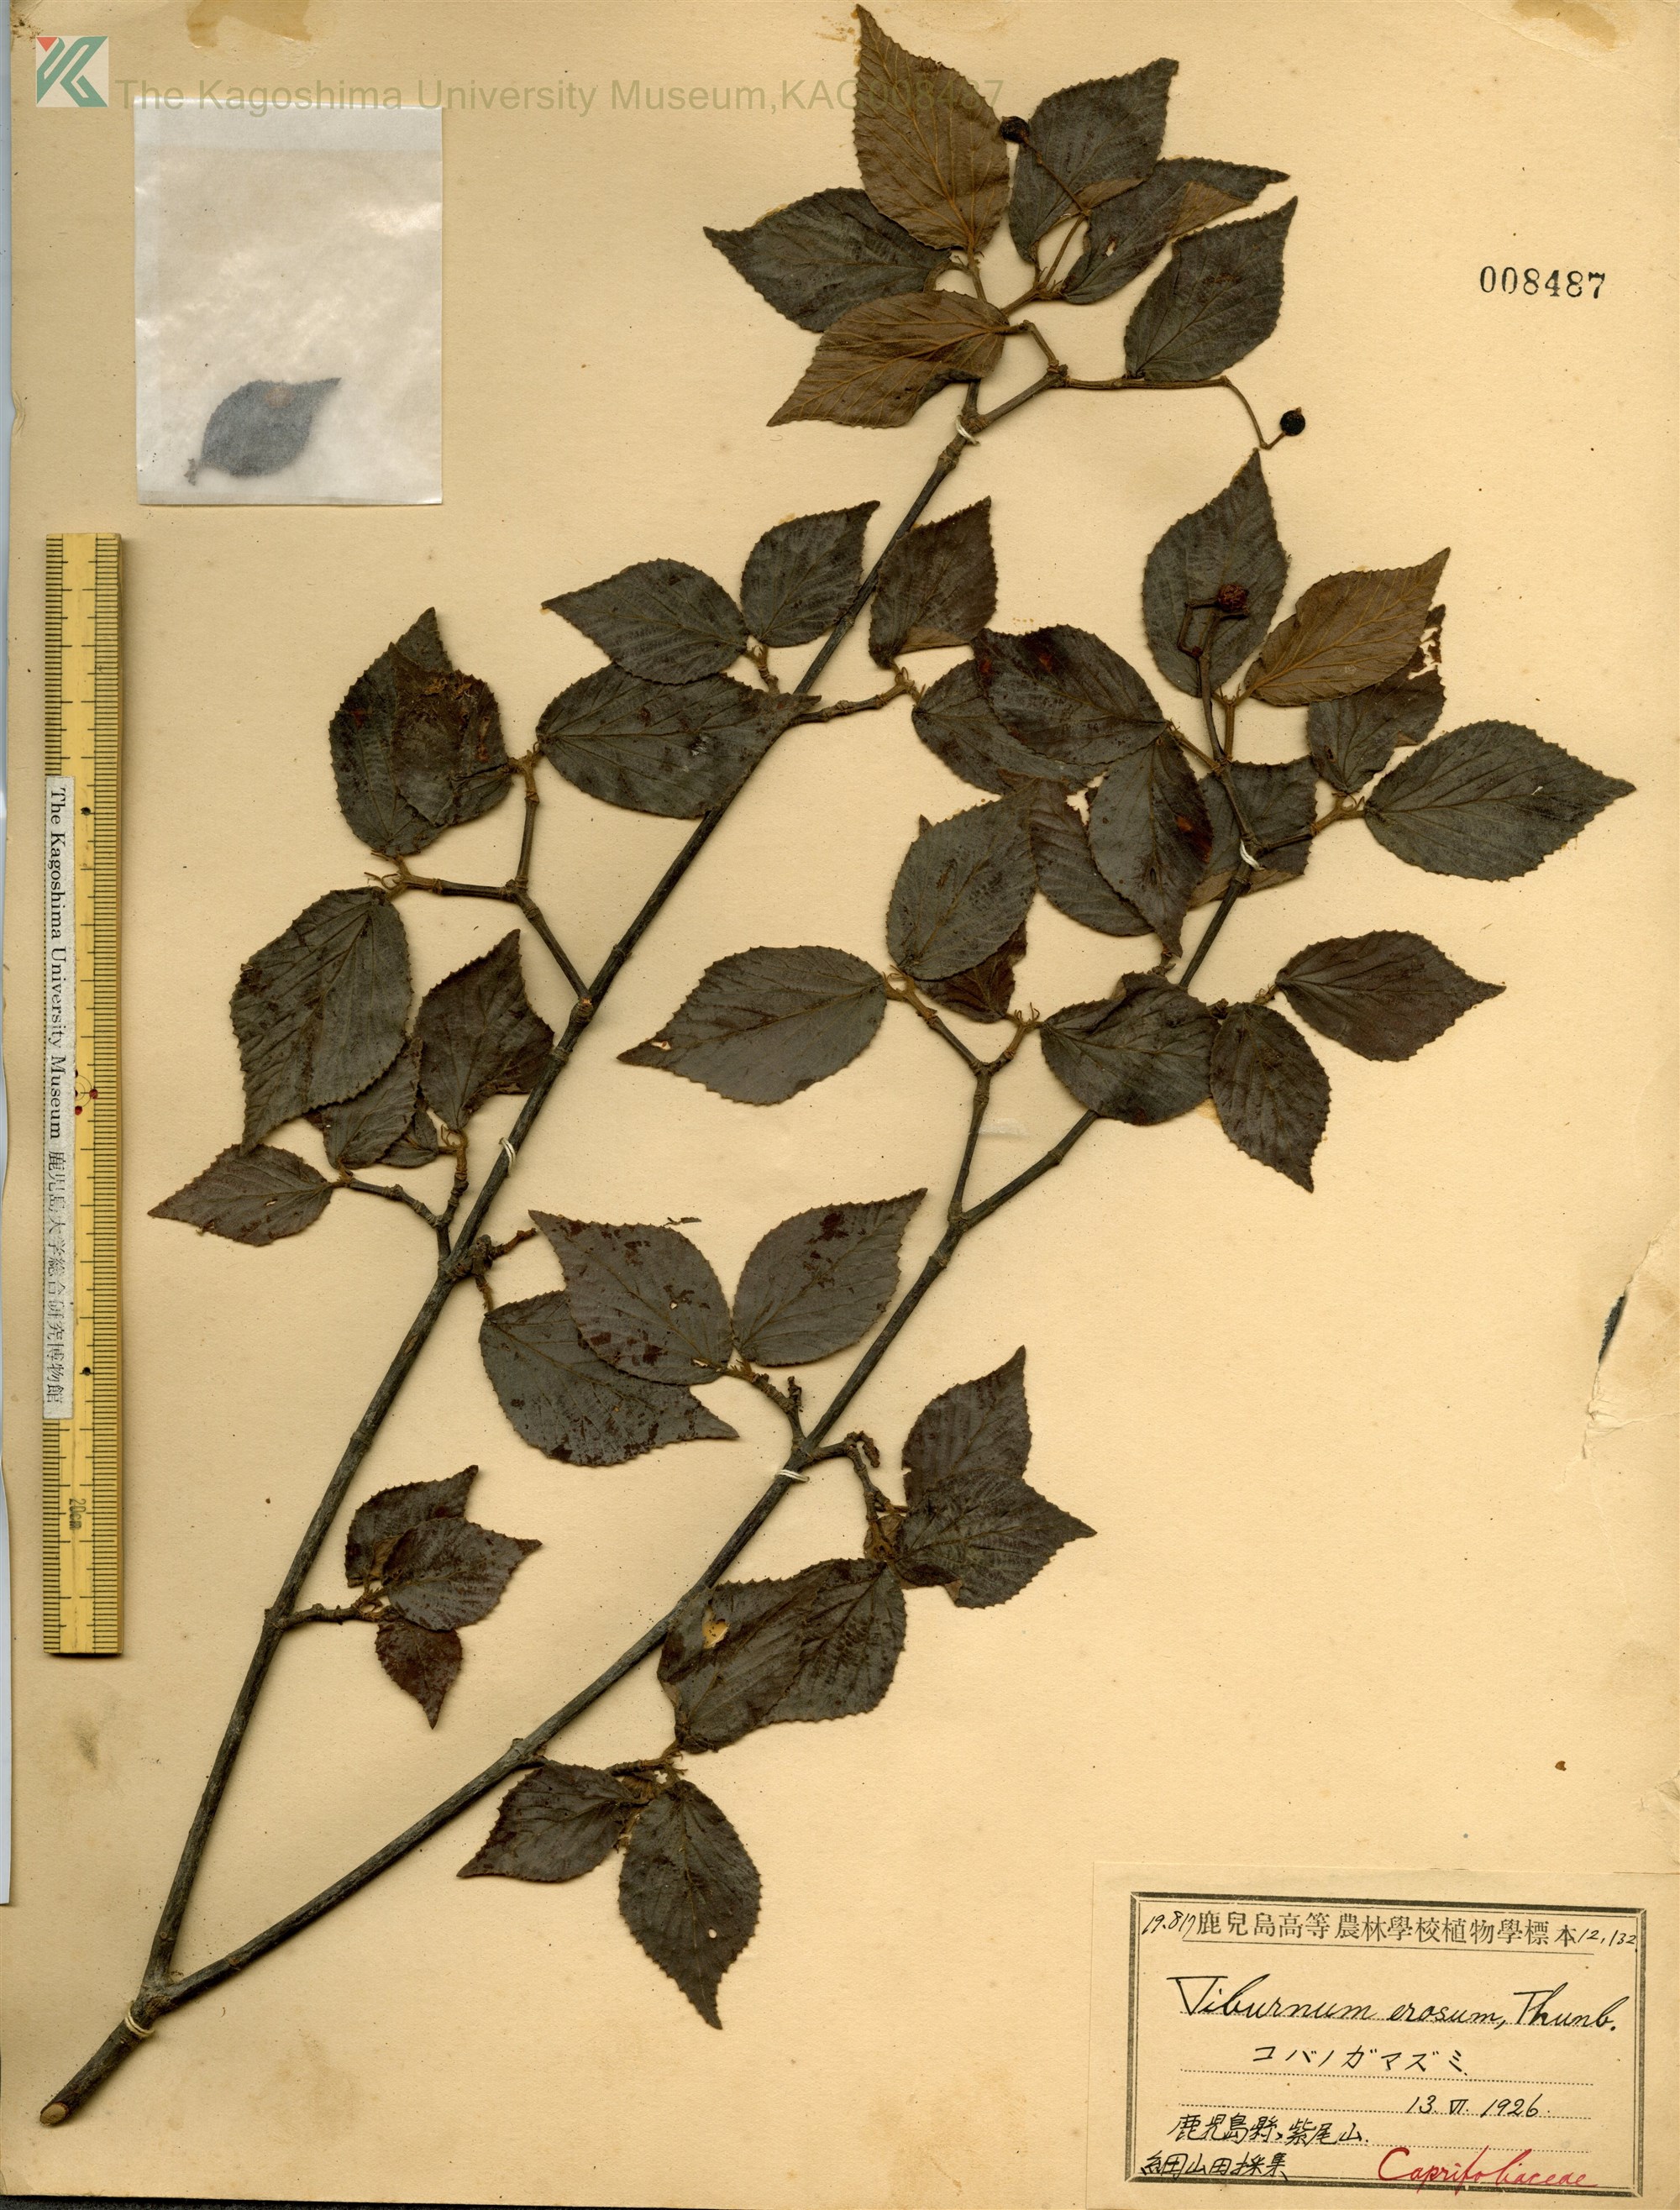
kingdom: Plantae
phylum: Tracheophyta
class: Magnoliopsida
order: Dipsacales
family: Viburnaceae
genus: Viburnum
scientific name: Viburnum erosum
